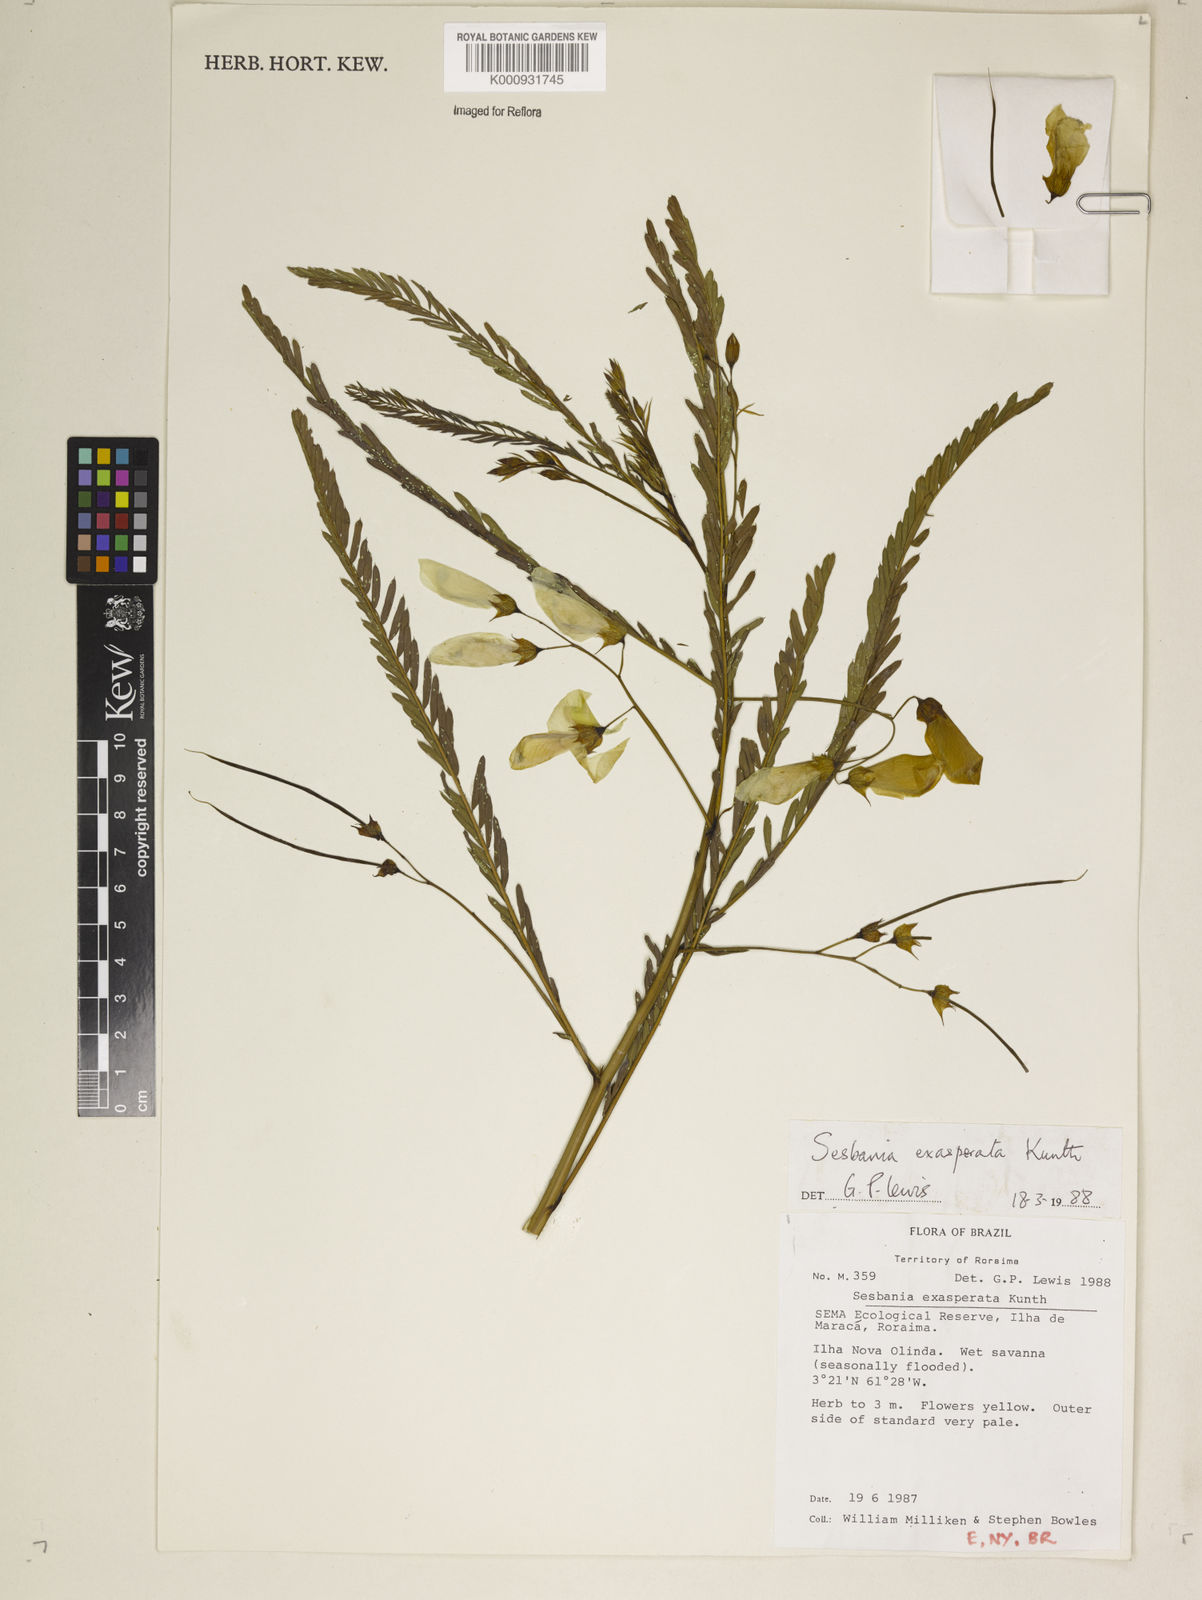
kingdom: Plantae
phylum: Tracheophyta
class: Magnoliopsida
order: Fabales
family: Fabaceae
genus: Sesbania
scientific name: Sesbania exasperata
